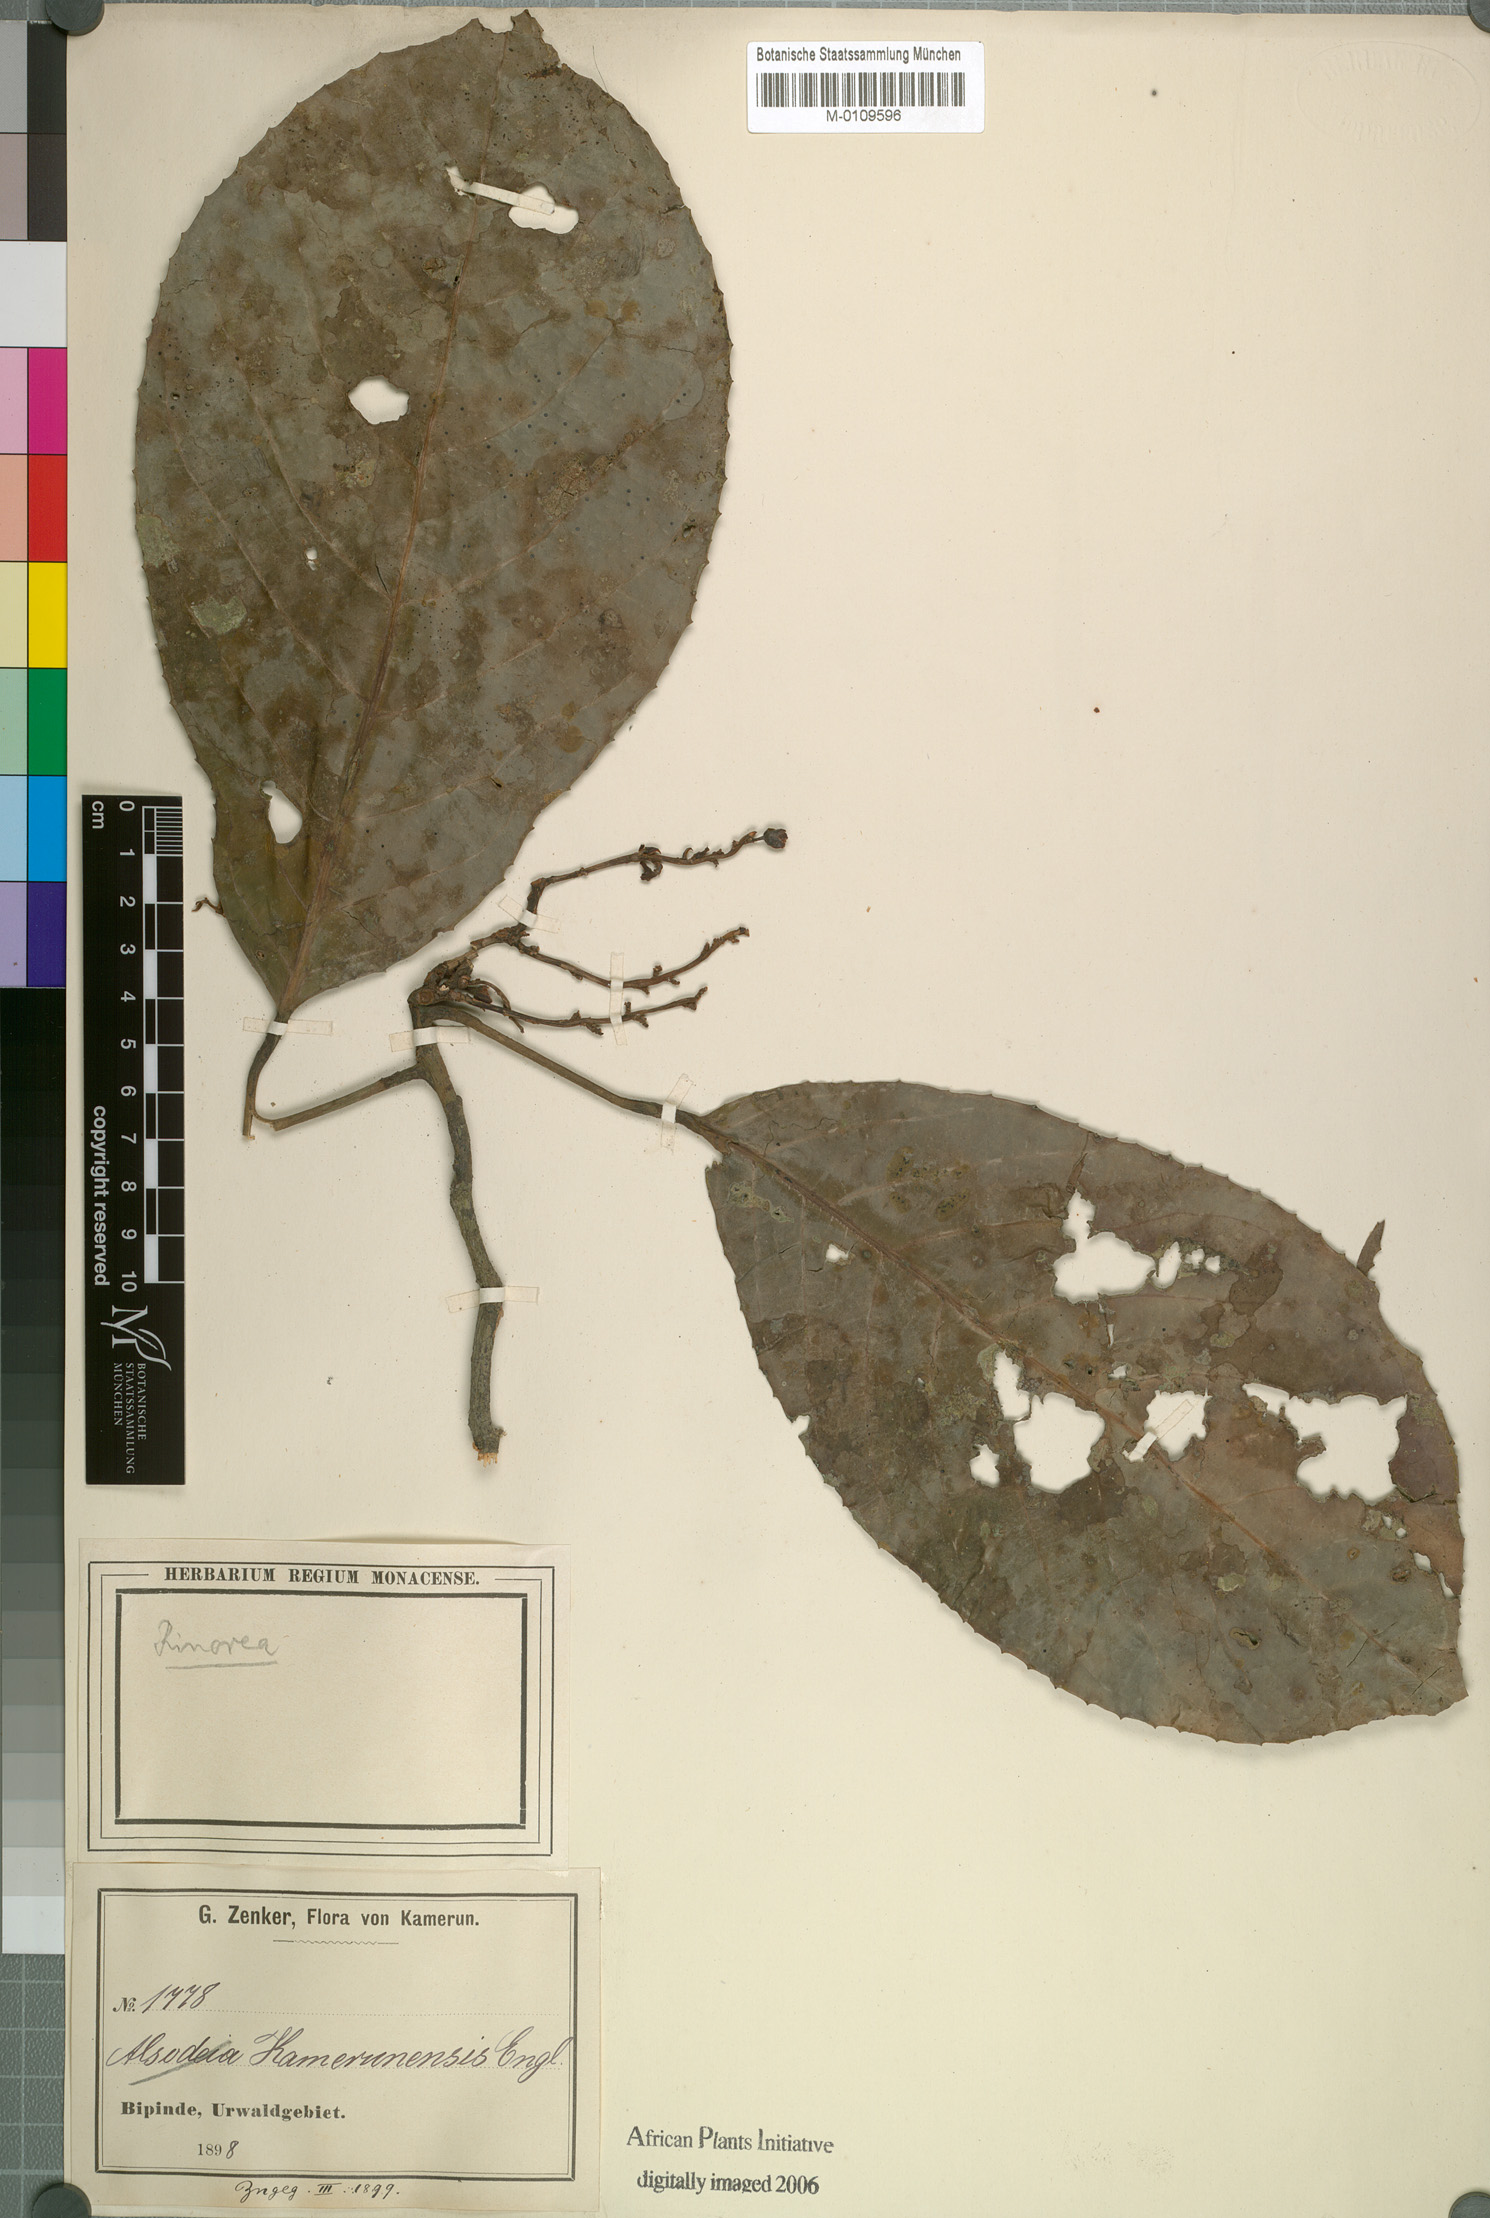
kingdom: Plantae
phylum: Tracheophyta
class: Magnoliopsida
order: Malpighiales
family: Violaceae
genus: Rinorea
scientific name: Rinorea kamerunensis
